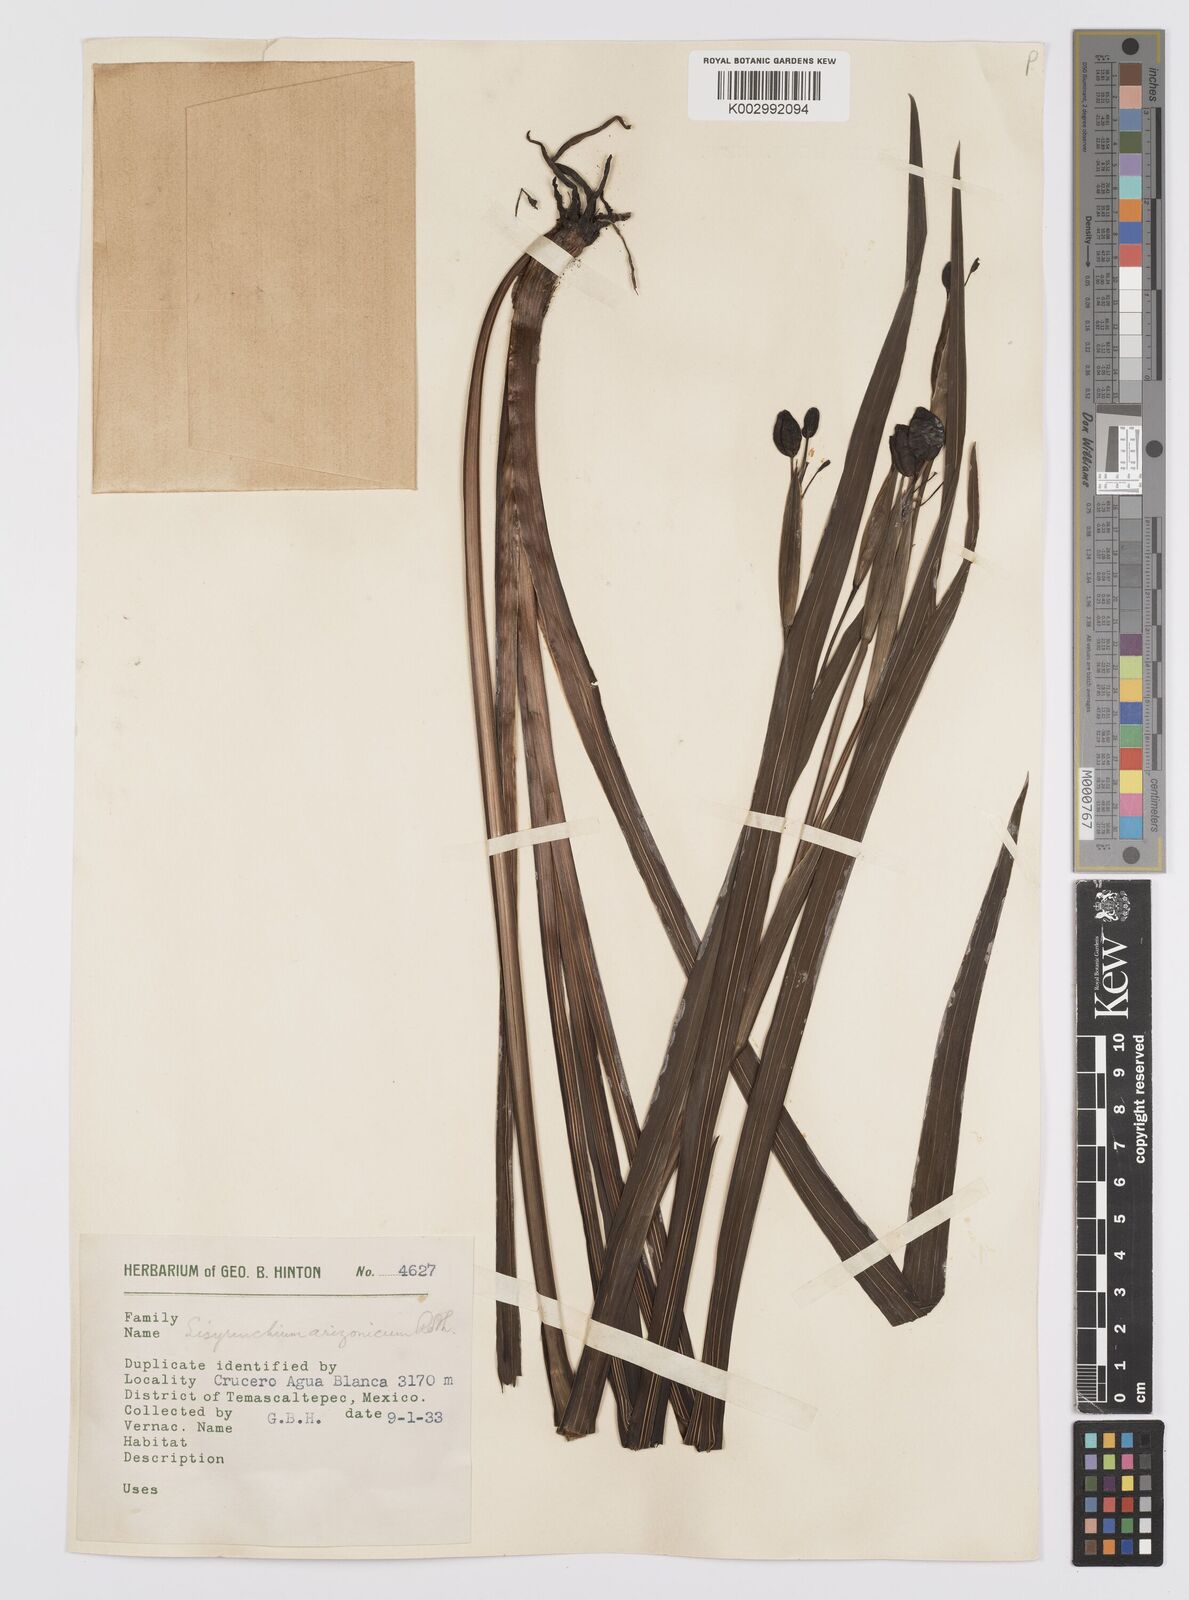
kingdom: Plantae
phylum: Tracheophyta
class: Liliopsida
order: Asparagales
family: Iridaceae
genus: Sisyrinchium
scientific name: Sisyrinchium arizonicum
